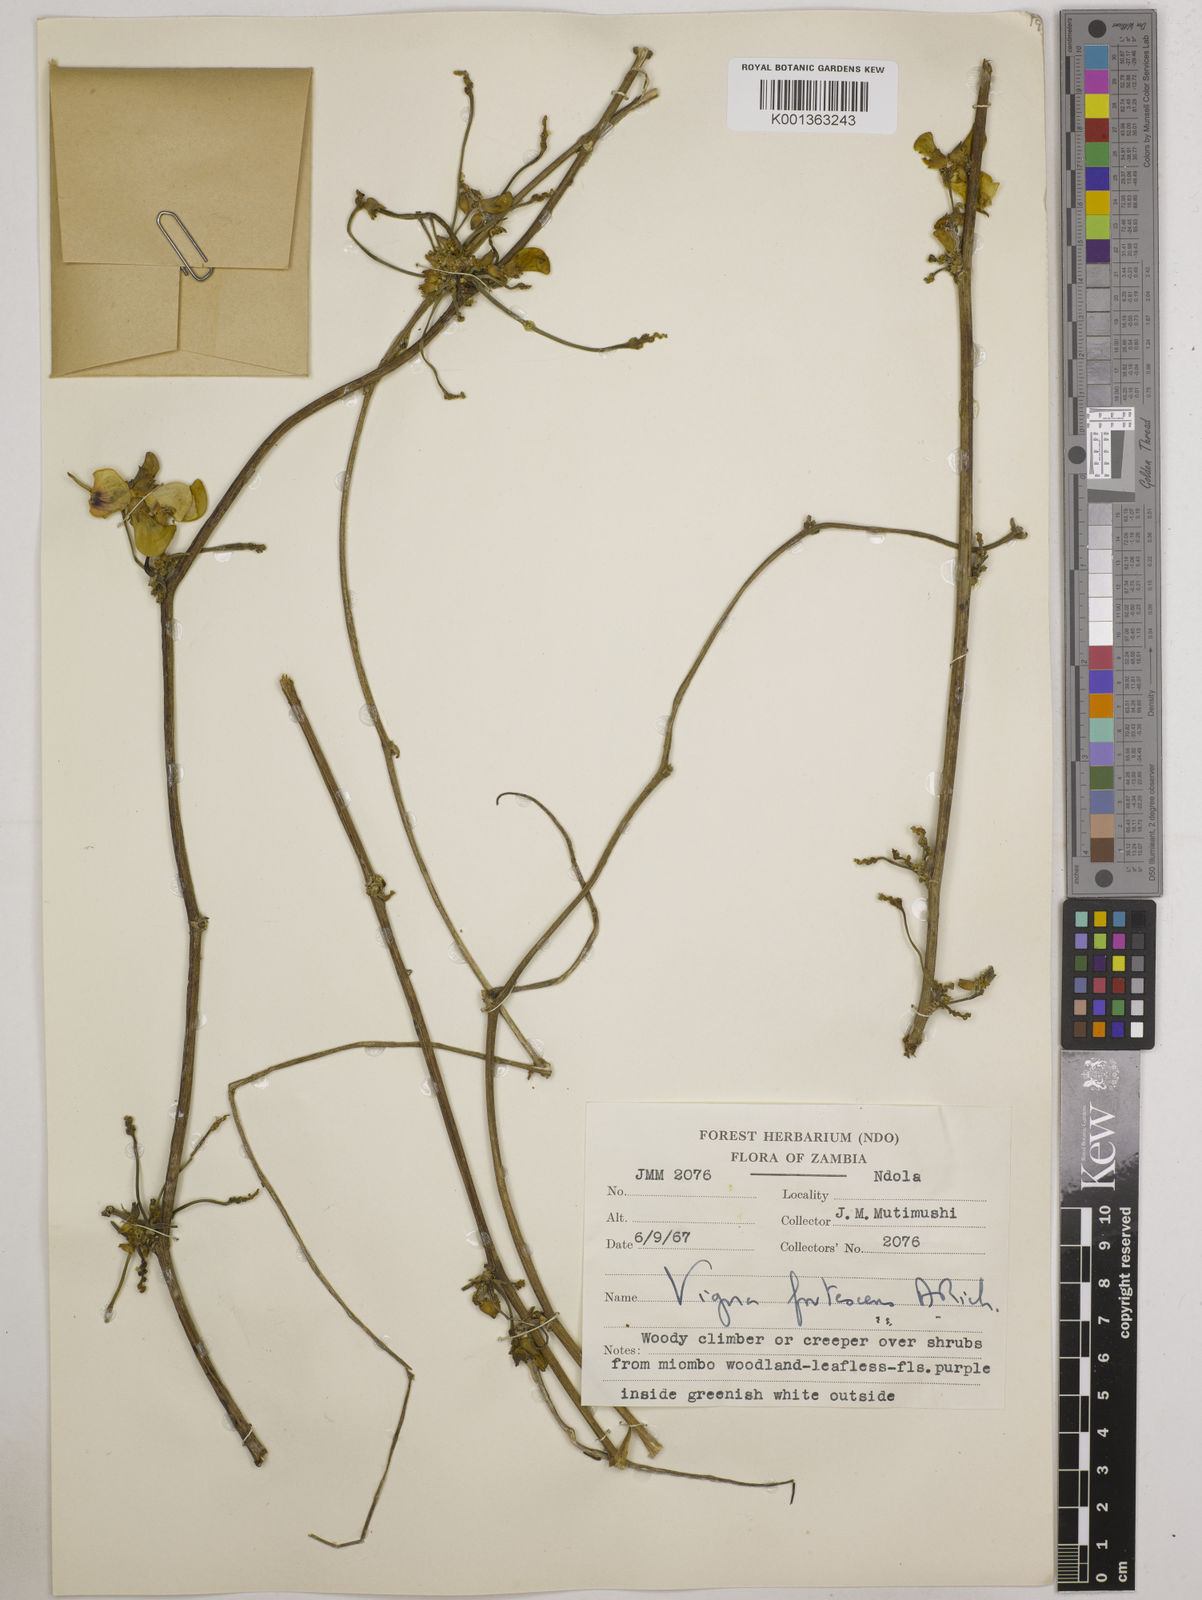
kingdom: Plantae
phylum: Tracheophyta
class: Magnoliopsida
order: Fabales
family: Fabaceae
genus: Vigna
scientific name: Vigna
